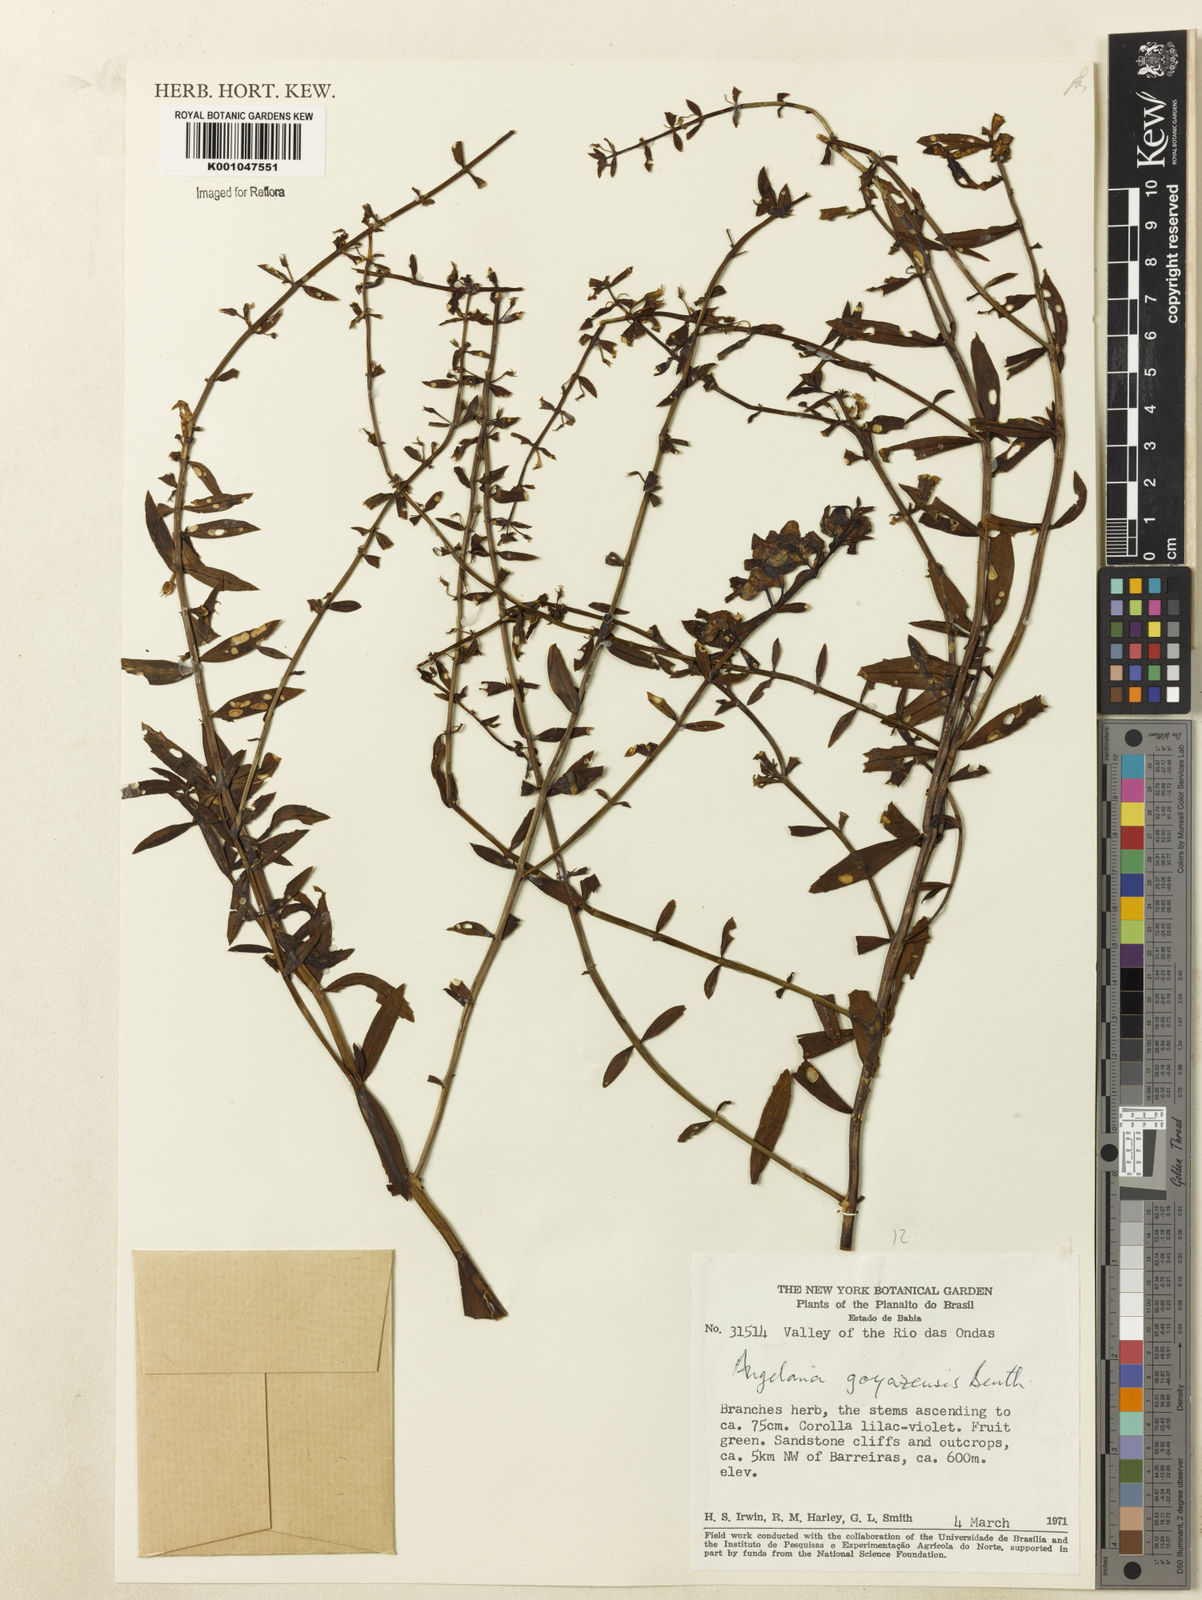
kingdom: Plantae
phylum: Tracheophyta
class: Magnoliopsida
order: Lamiales
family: Plantaginaceae
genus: Angelonia
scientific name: Angelonia goyazensis
